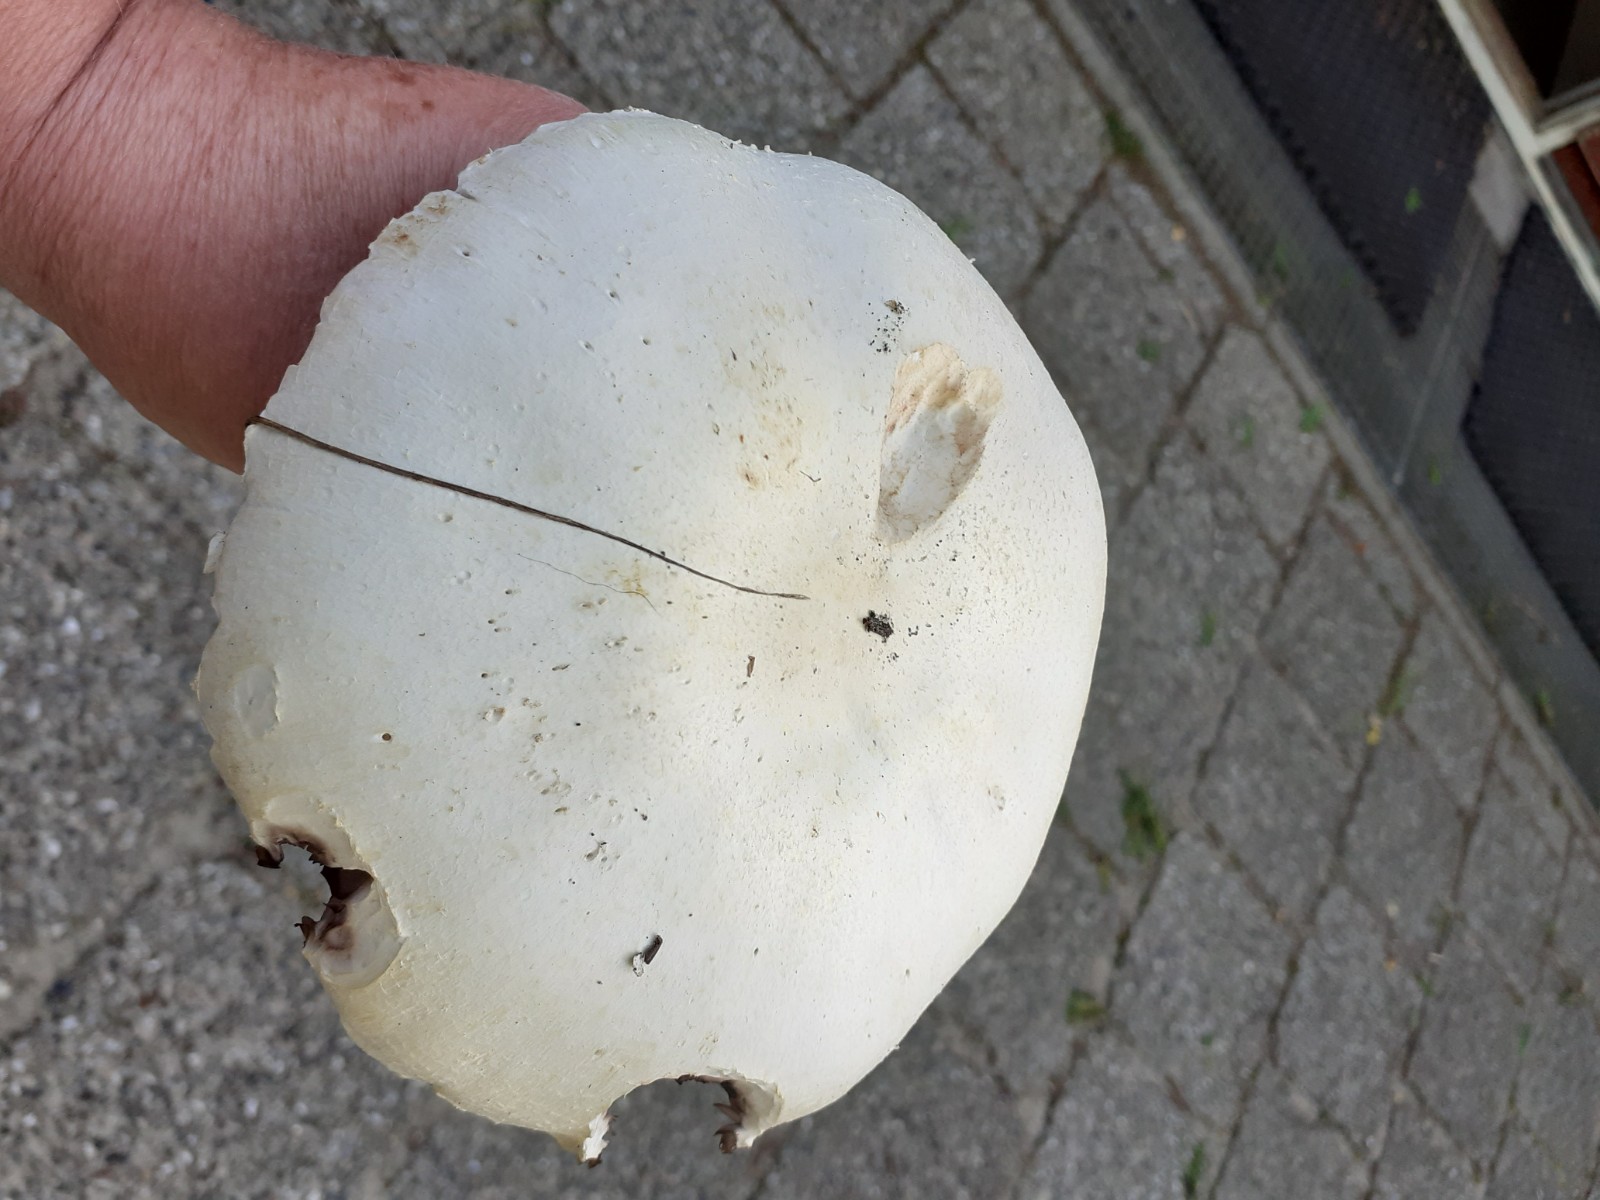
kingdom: Fungi
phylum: Basidiomycota
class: Agaricomycetes
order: Agaricales
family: Agaricaceae
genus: Agaricus
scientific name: Agaricus arvensis
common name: ager-champignon
